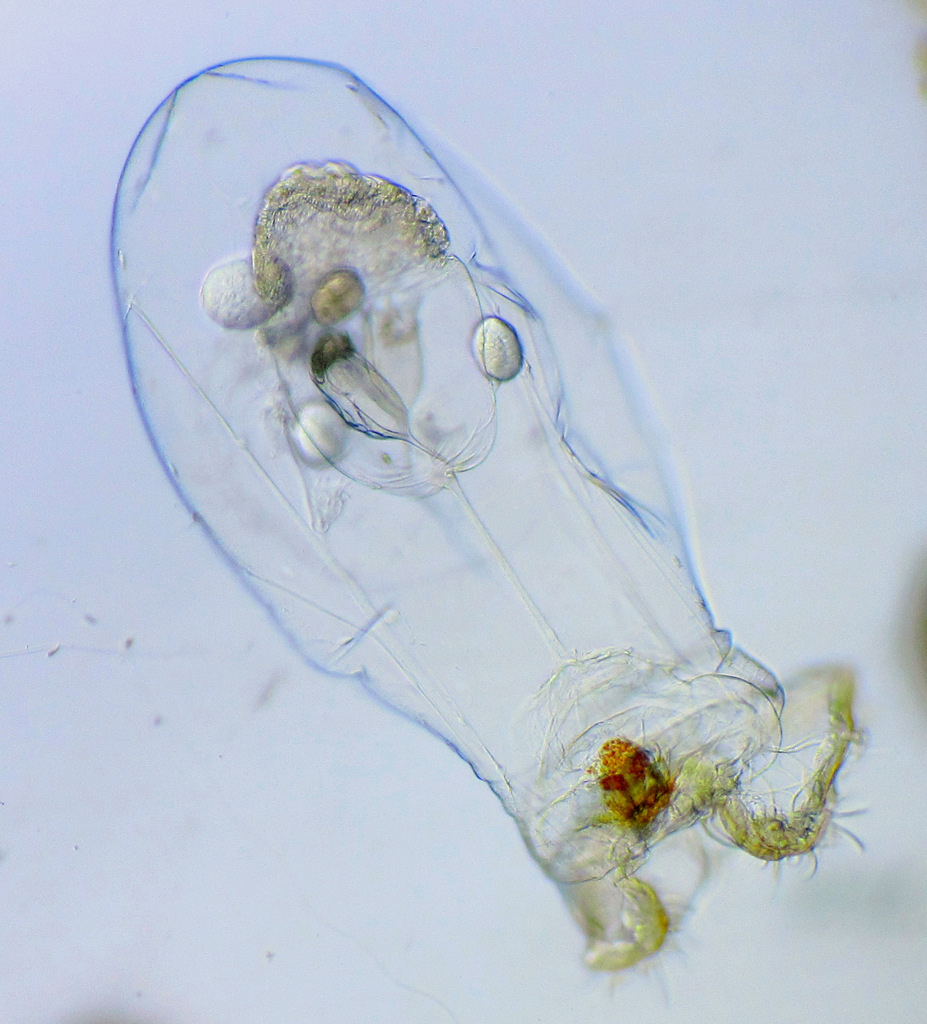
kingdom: Animalia
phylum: Rotifera
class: Eurotatoria
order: Ploima
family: Asplanchnidae
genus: Asplanchna
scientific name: Asplanchna priodonta
